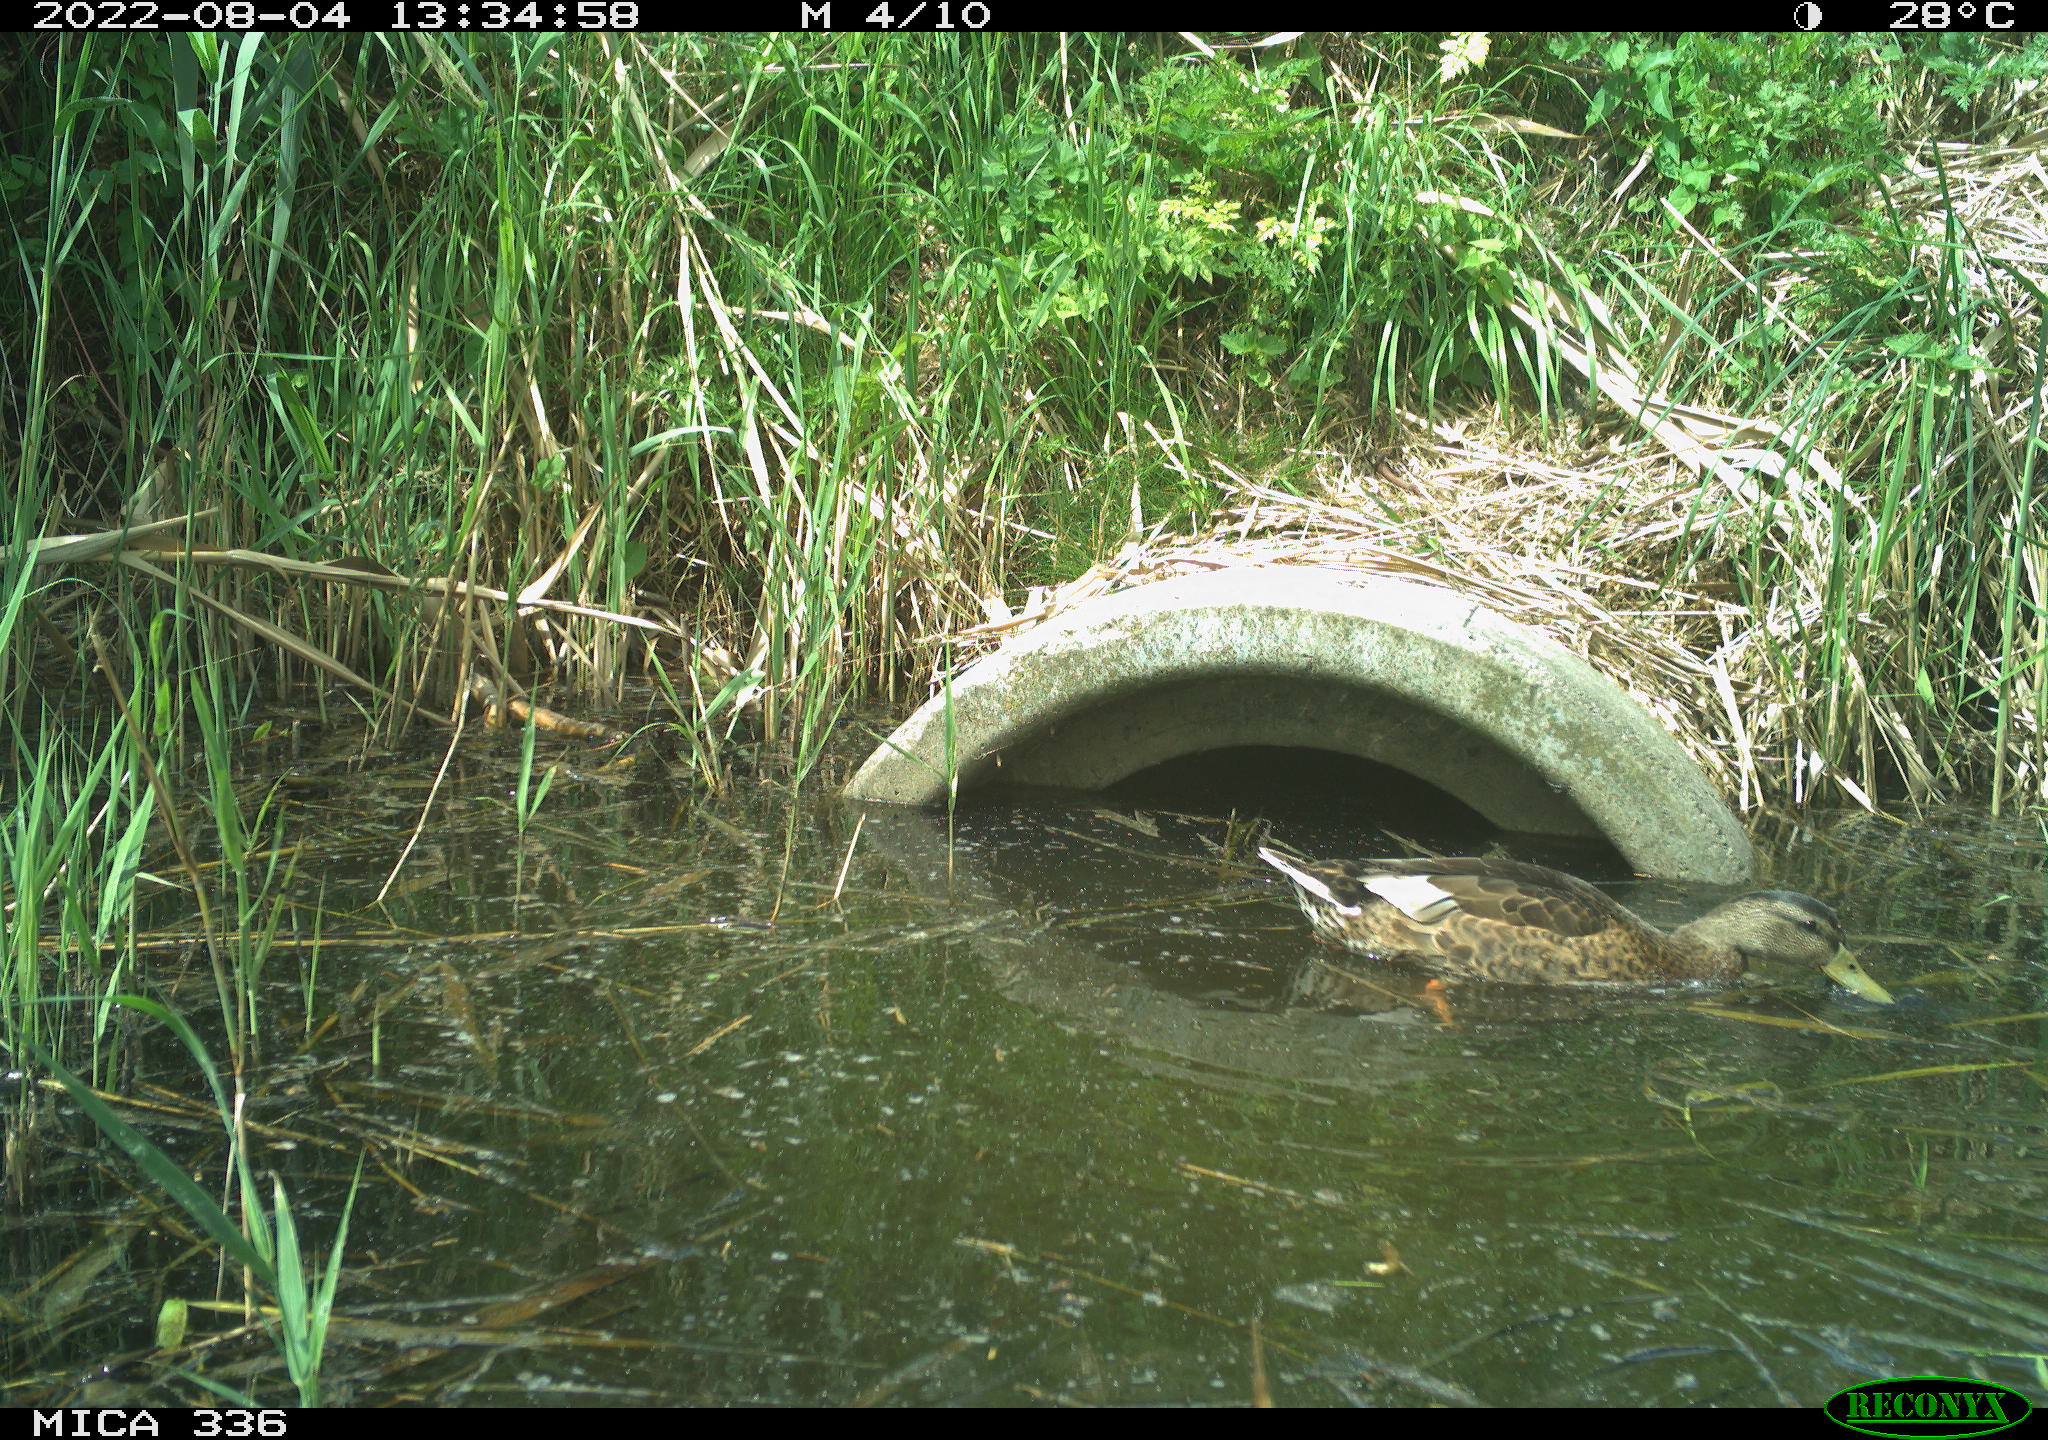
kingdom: Animalia
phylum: Chordata
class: Aves
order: Anseriformes
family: Anatidae
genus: Anas
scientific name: Anas platyrhynchos
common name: Mallard
